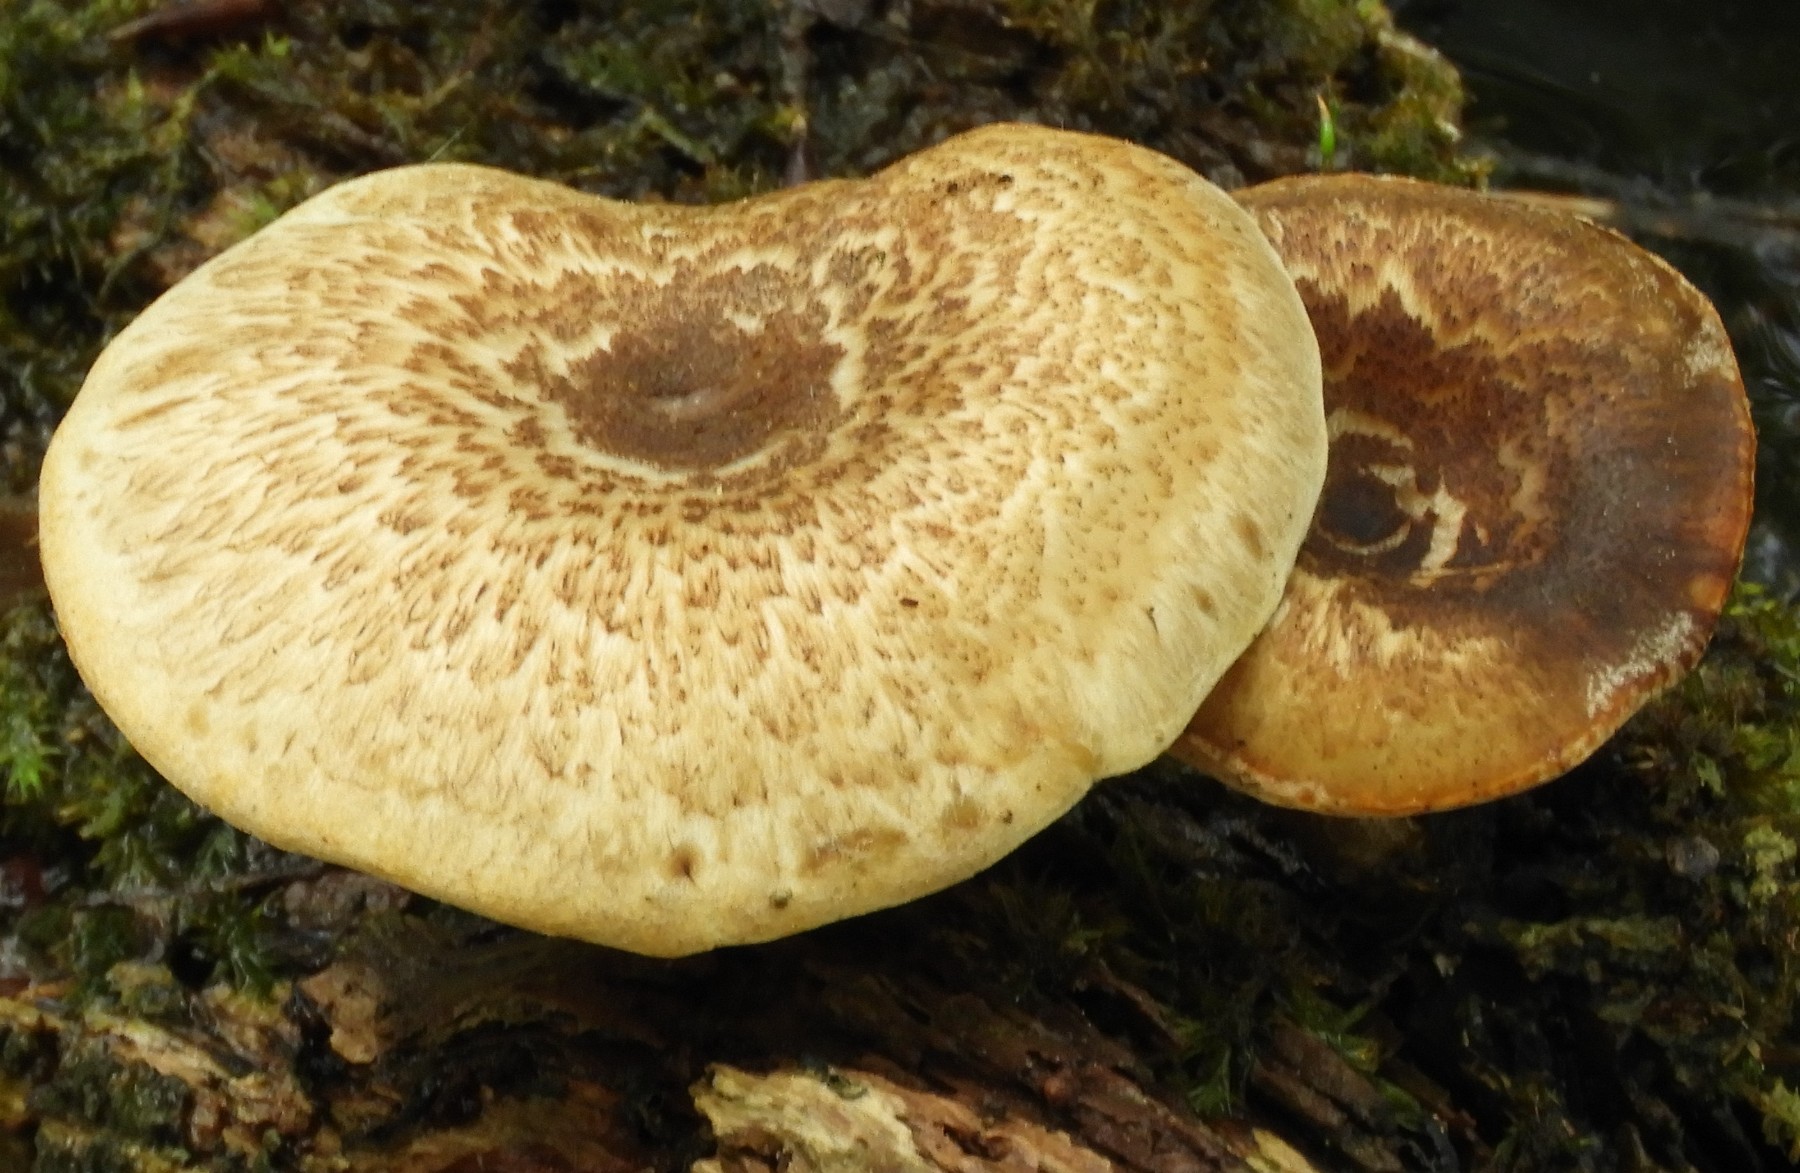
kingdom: Fungi
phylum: Basidiomycota
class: Agaricomycetes
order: Polyporales
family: Polyporaceae
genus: Lentinus
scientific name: Lentinus tigrinus
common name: tigerhat
